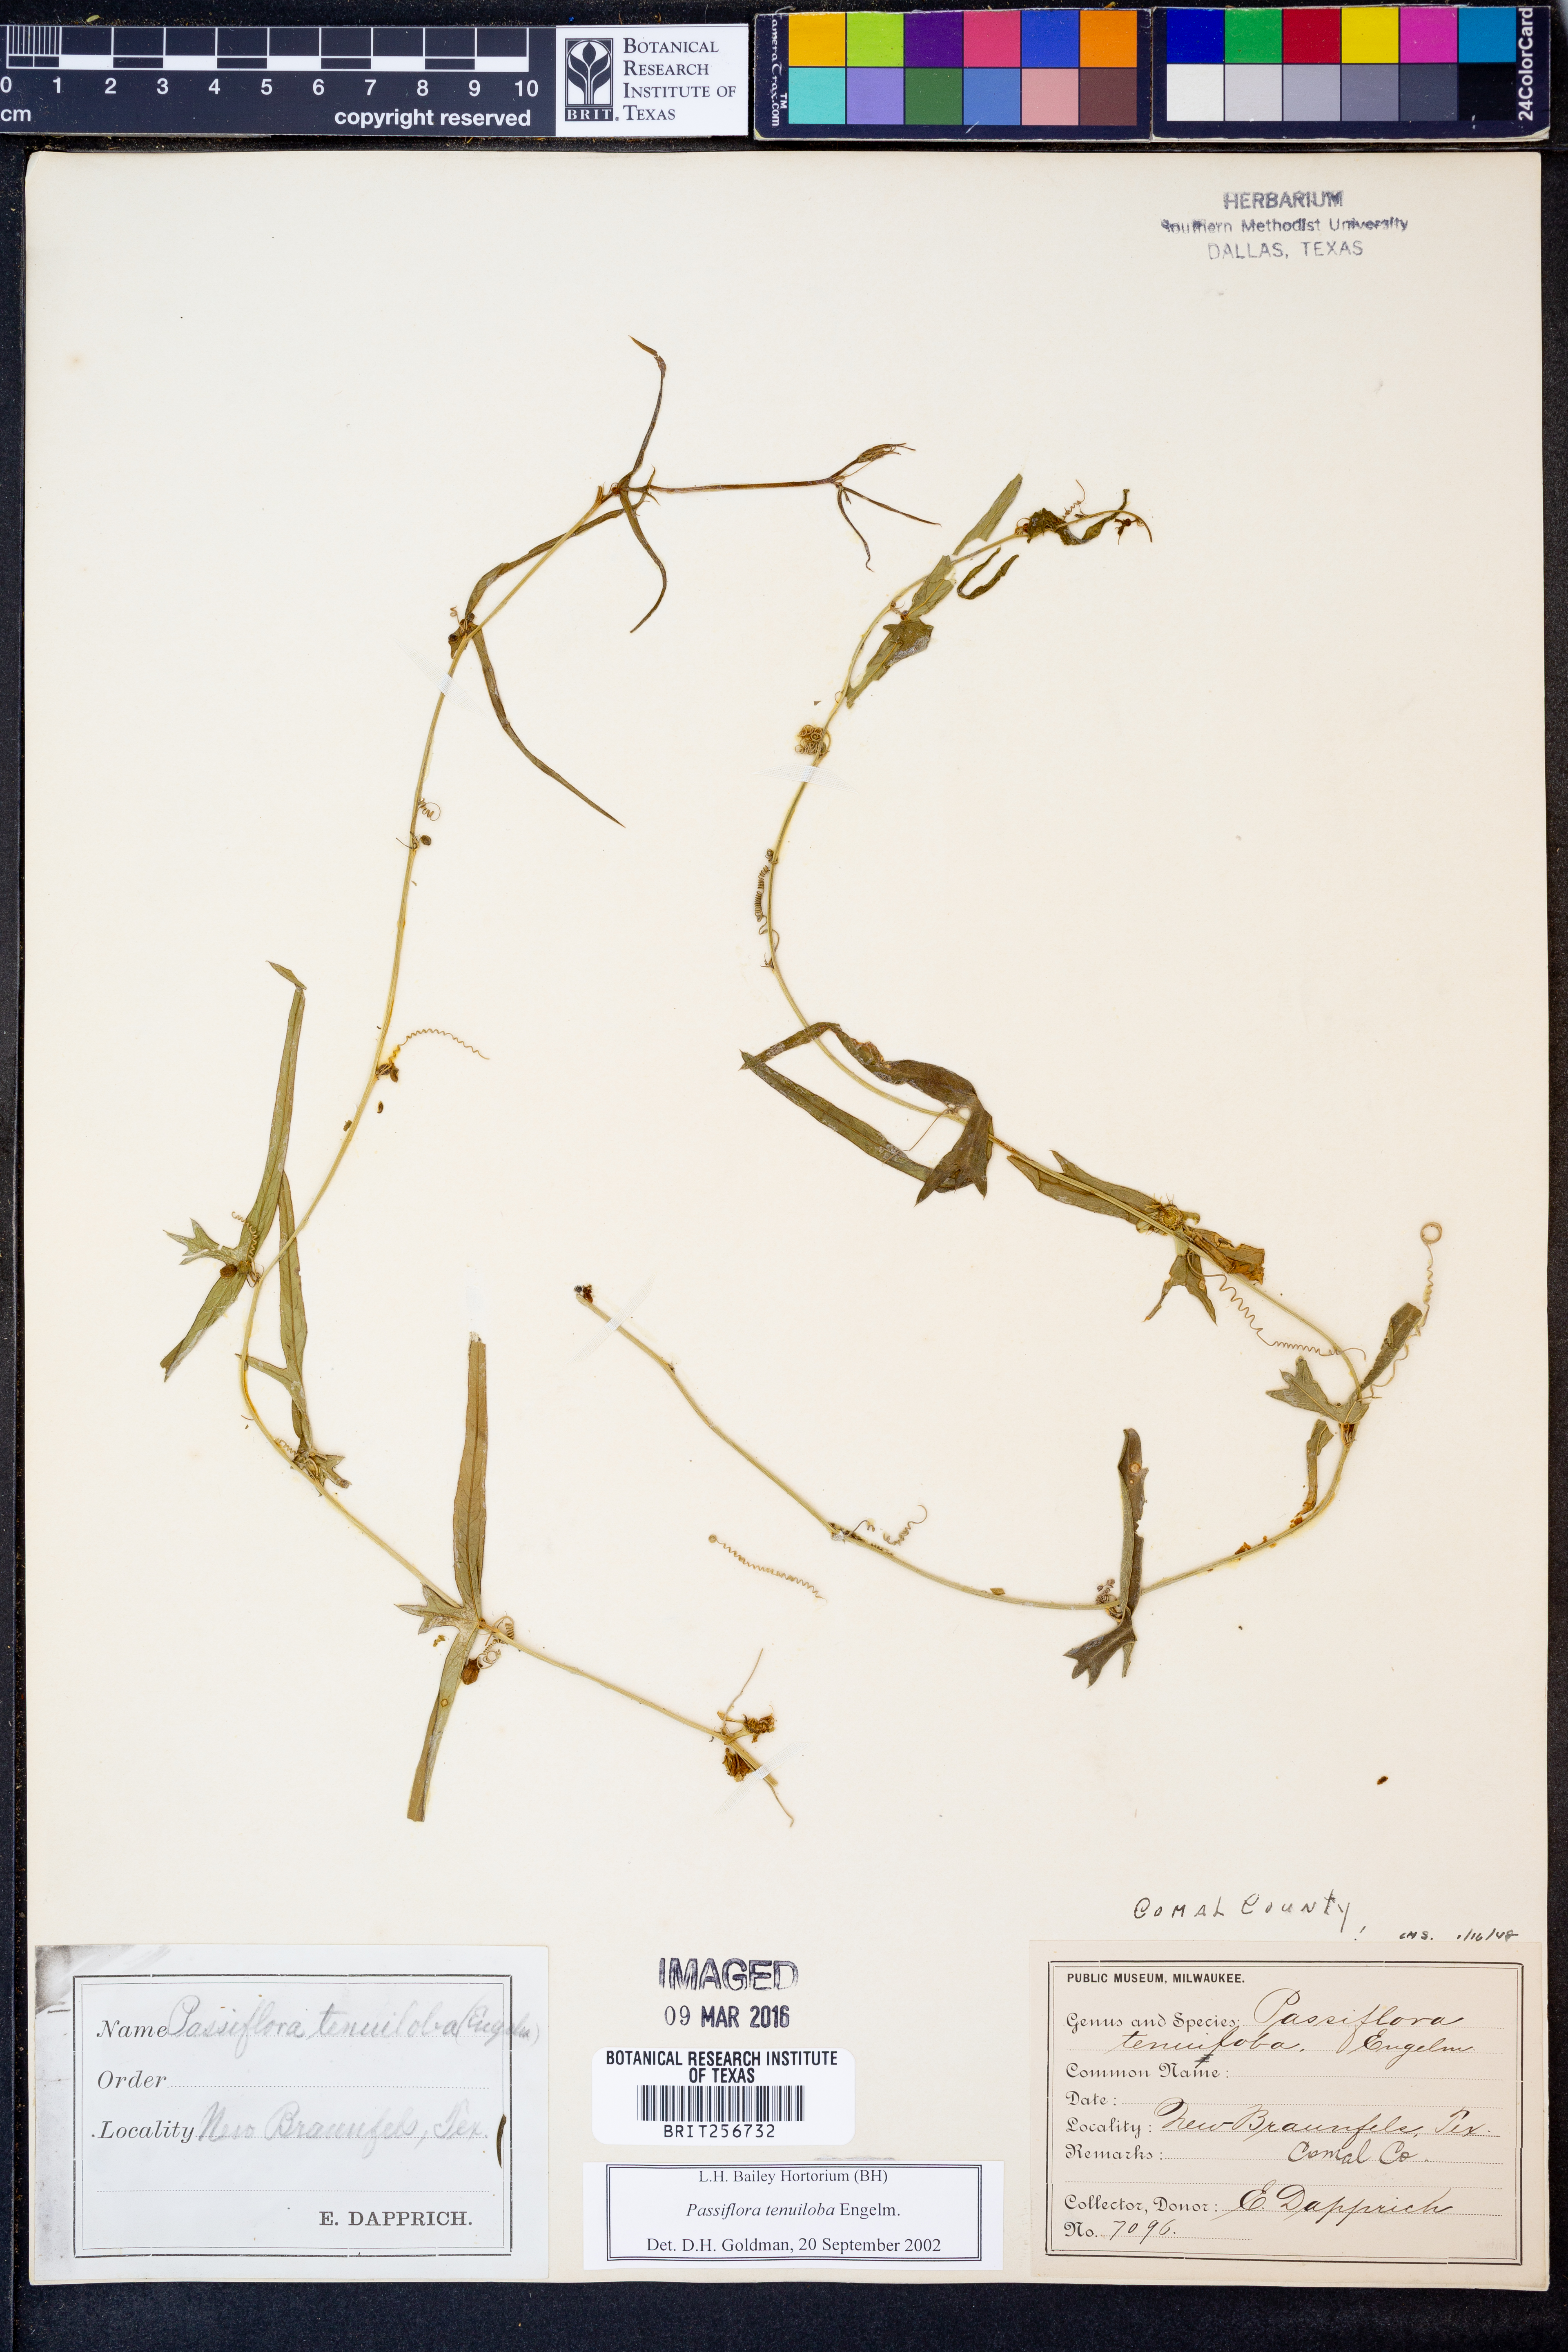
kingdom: Plantae
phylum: Tracheophyta
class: Magnoliopsida
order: Malpighiales
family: Passifloraceae
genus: Passiflora
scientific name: Passiflora tenuiloba
